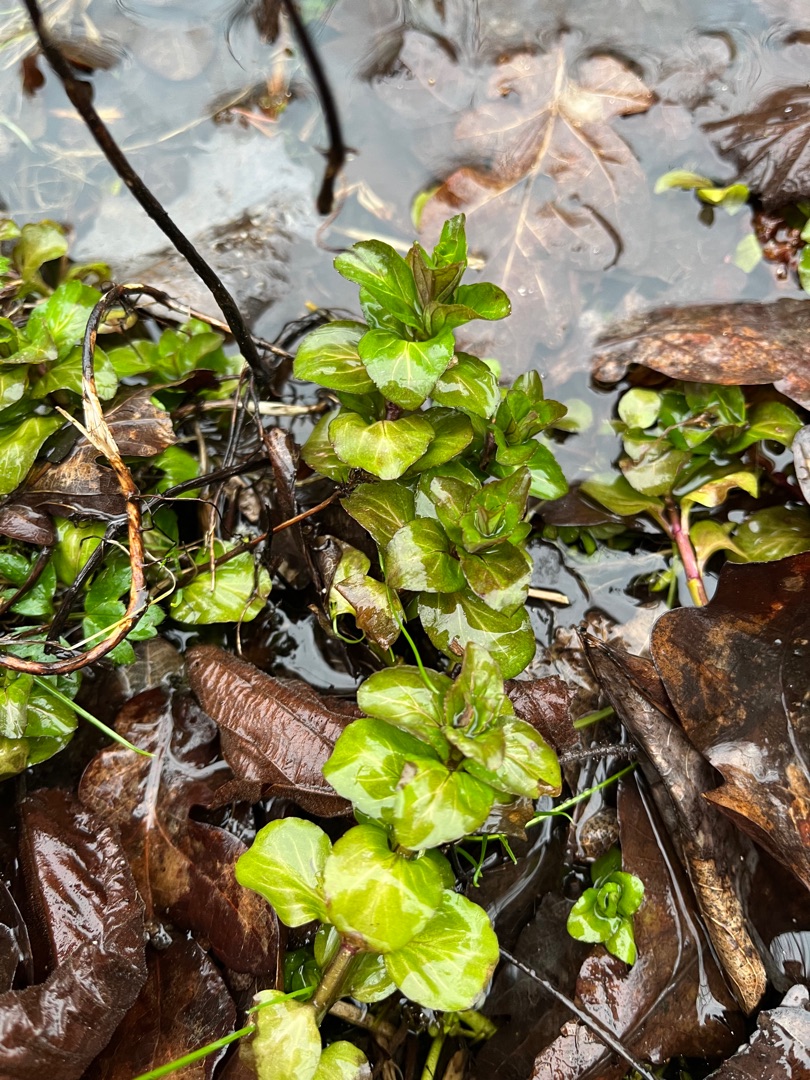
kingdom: Plantae
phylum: Tracheophyta
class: Magnoliopsida
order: Lamiales
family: Plantaginaceae
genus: Veronica
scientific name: Veronica beccabunga
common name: Tykbladet ærenpris
